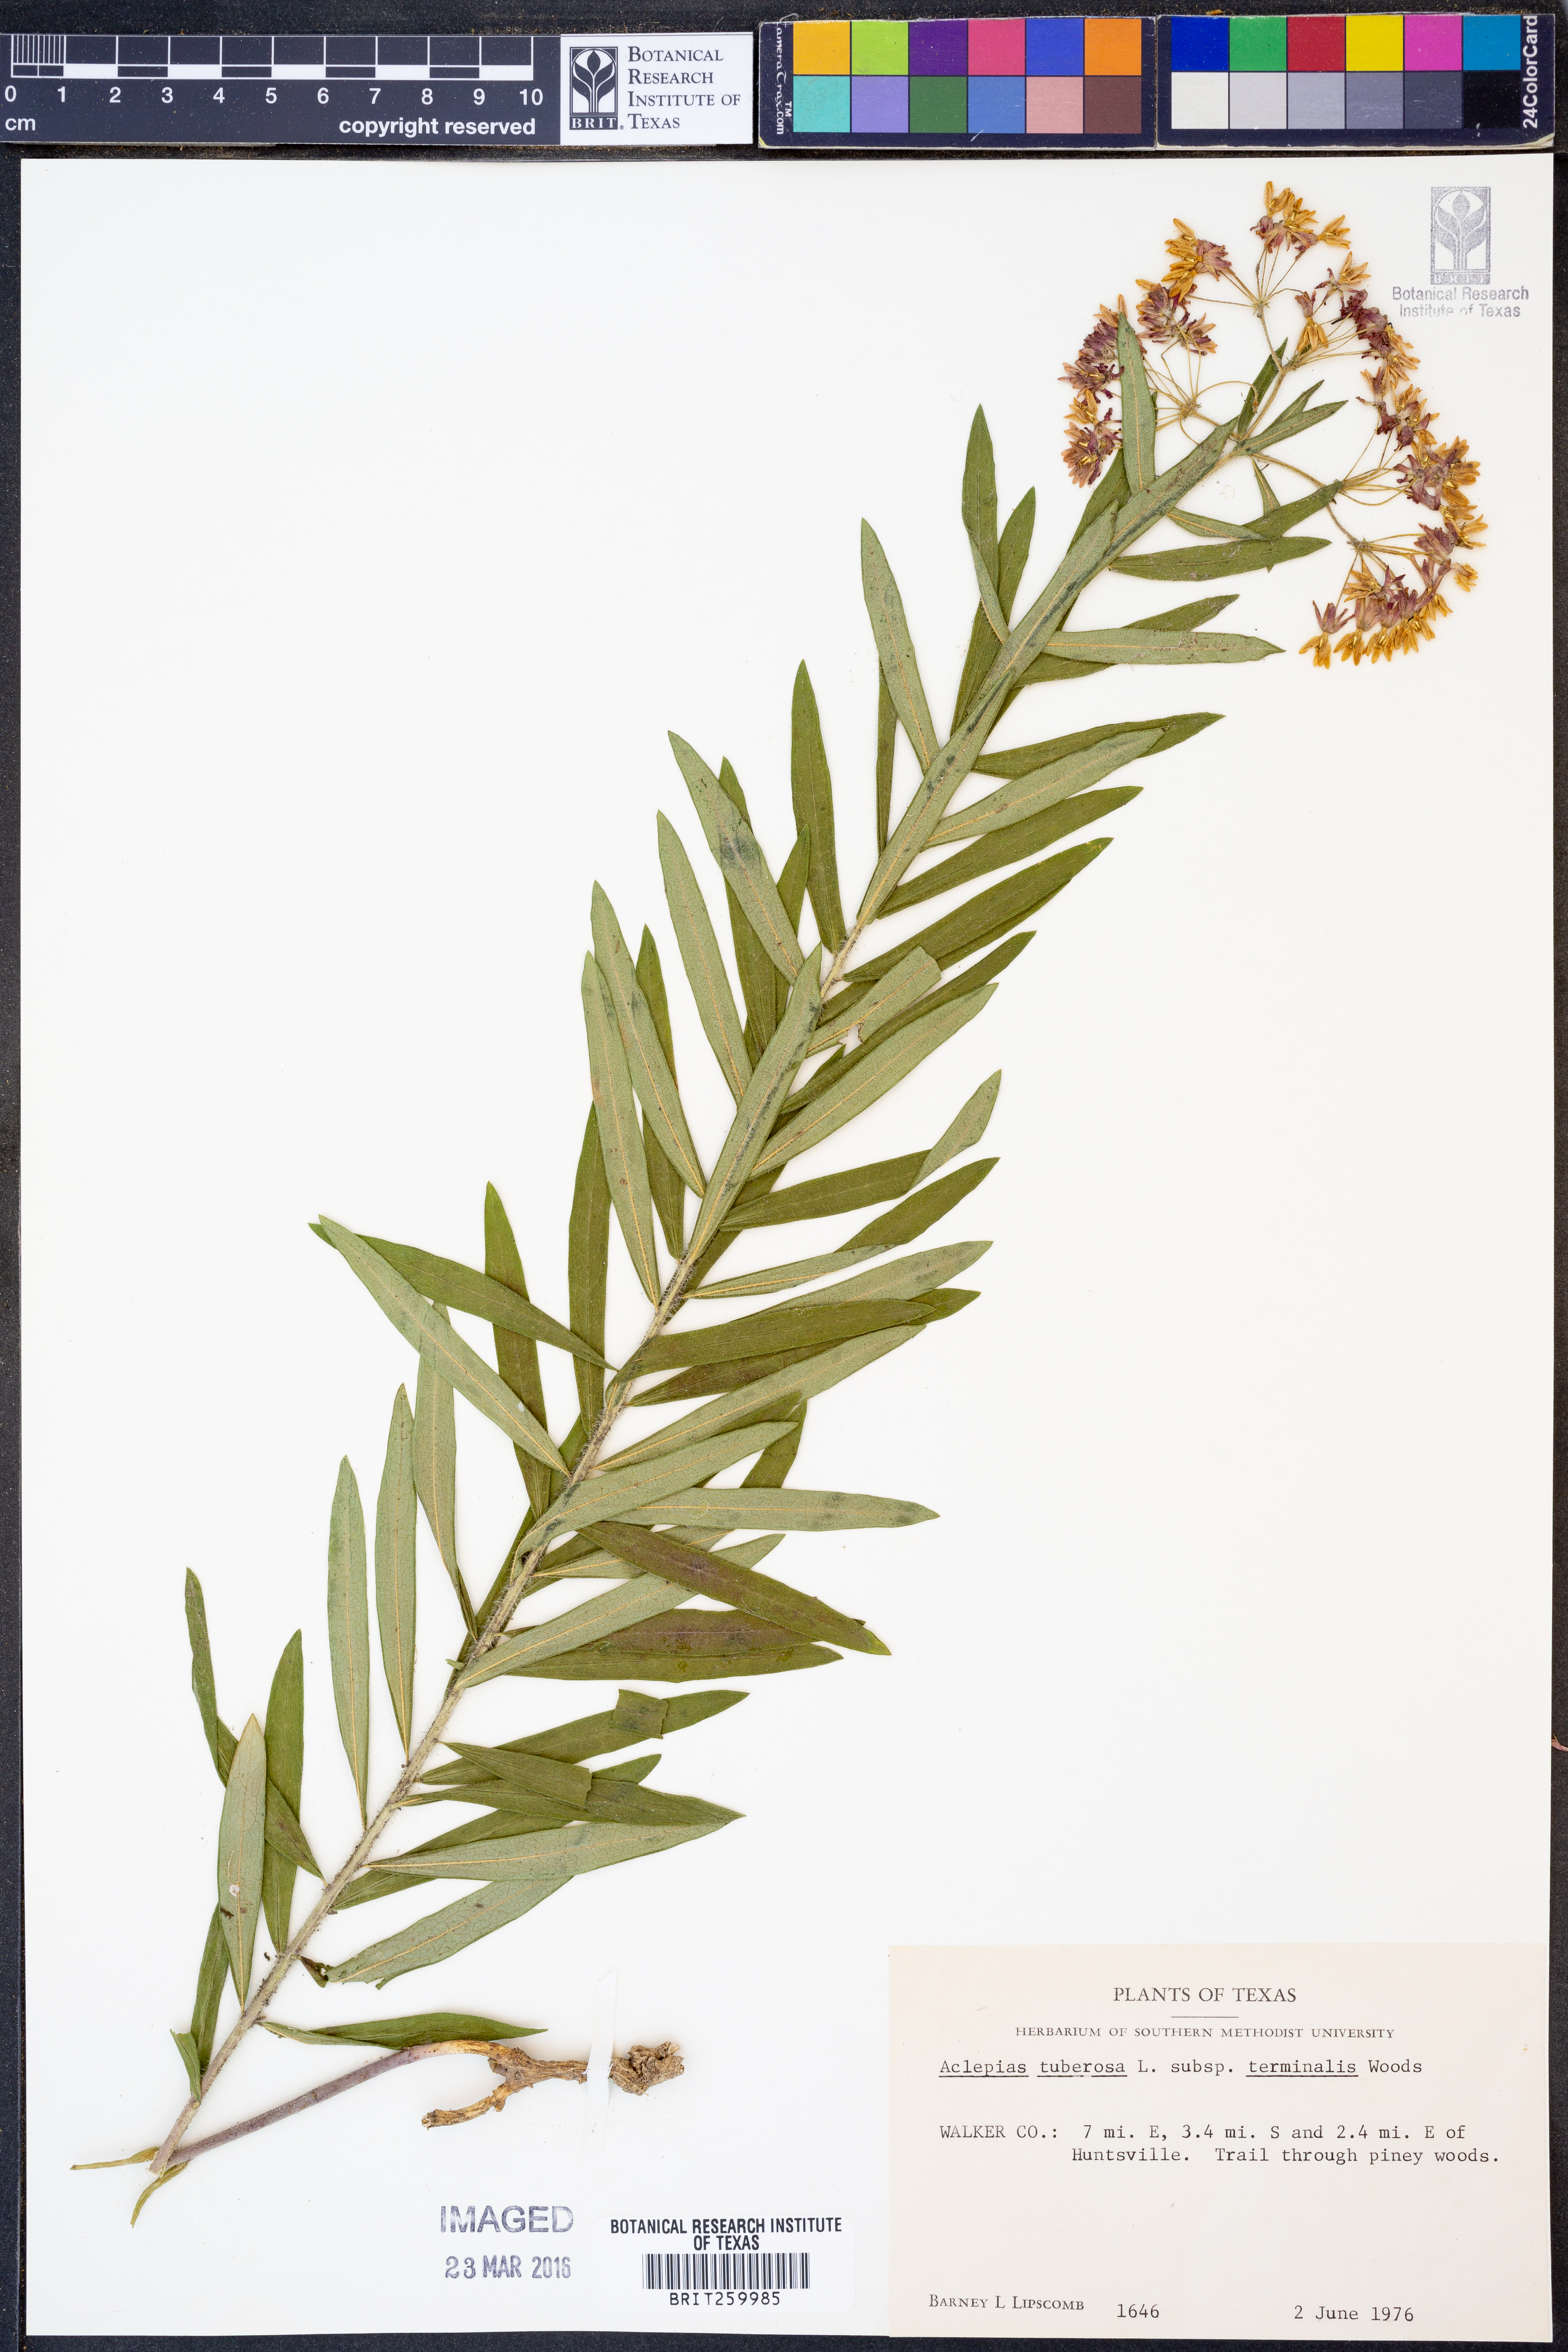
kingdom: Plantae
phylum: Tracheophyta
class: Magnoliopsida
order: Gentianales
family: Apocynaceae
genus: Asclepias
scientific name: Asclepias tuberosa
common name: Butterfly milkweed
